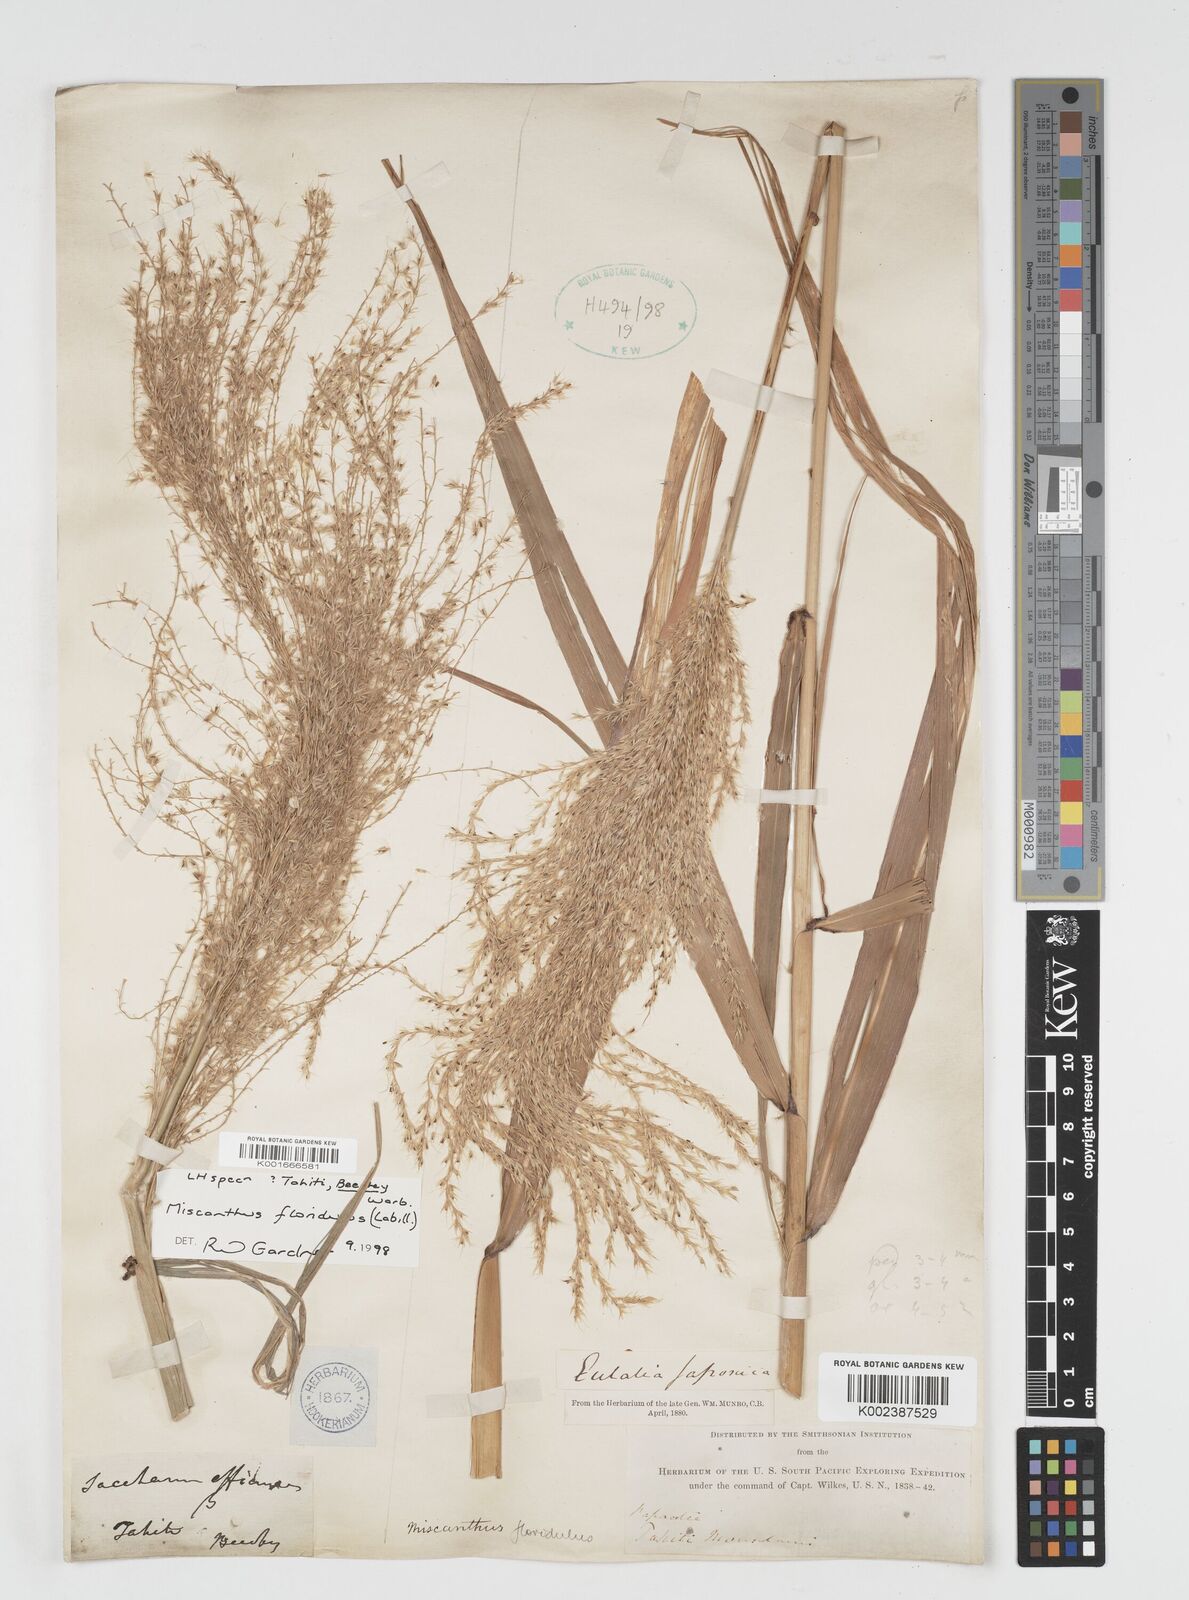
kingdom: Plantae
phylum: Tracheophyta
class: Liliopsida
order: Poales
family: Poaceae
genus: Miscanthus
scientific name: Miscanthus floridulus
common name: Pacific island silvergrass
